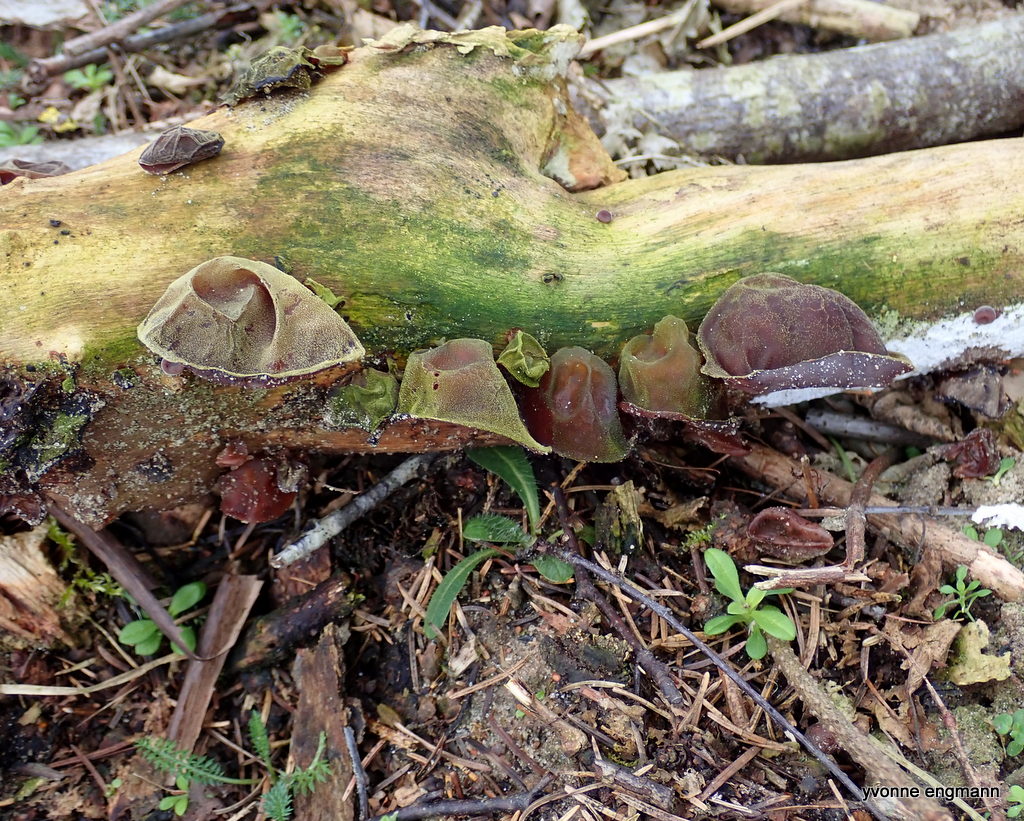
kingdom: Fungi
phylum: Basidiomycota
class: Agaricomycetes
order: Auriculariales
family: Auriculariaceae
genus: Auricularia
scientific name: Auricularia auricula-judae
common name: almindelig judasøre
